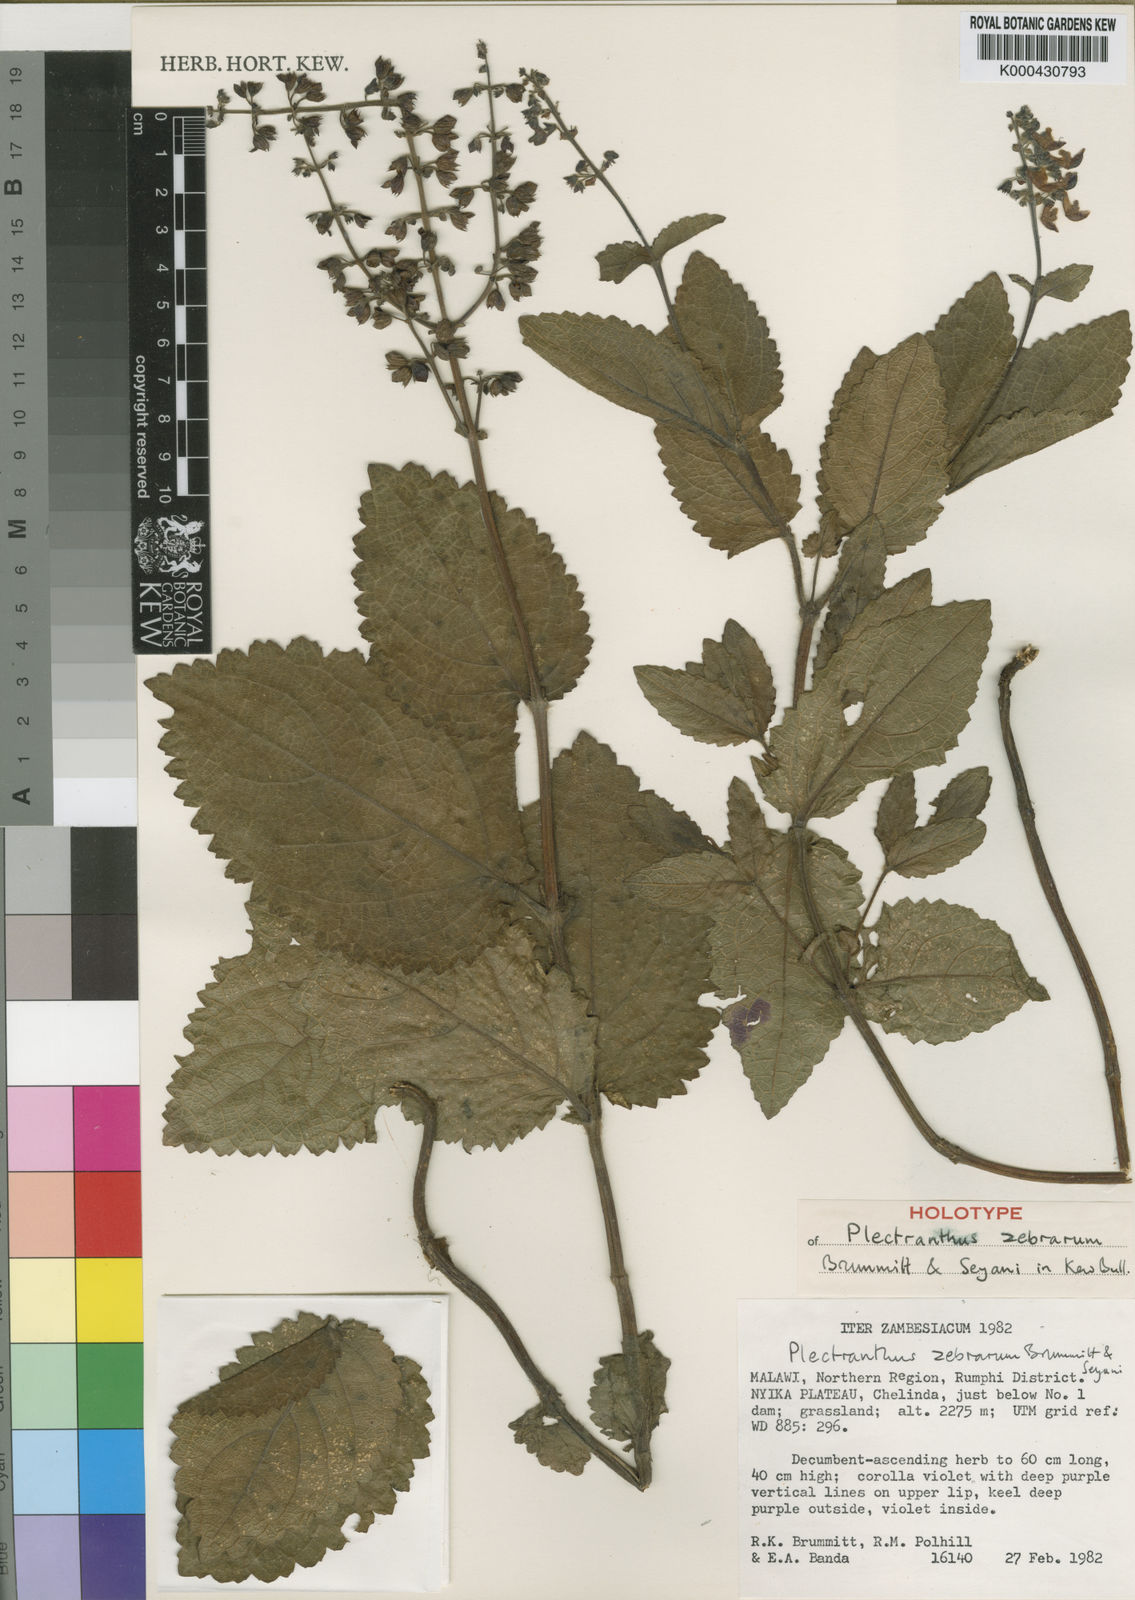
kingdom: Plantae
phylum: Tracheophyta
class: Magnoliopsida
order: Lamiales
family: Lamiaceae
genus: Equilabium
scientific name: Equilabium viphyense
